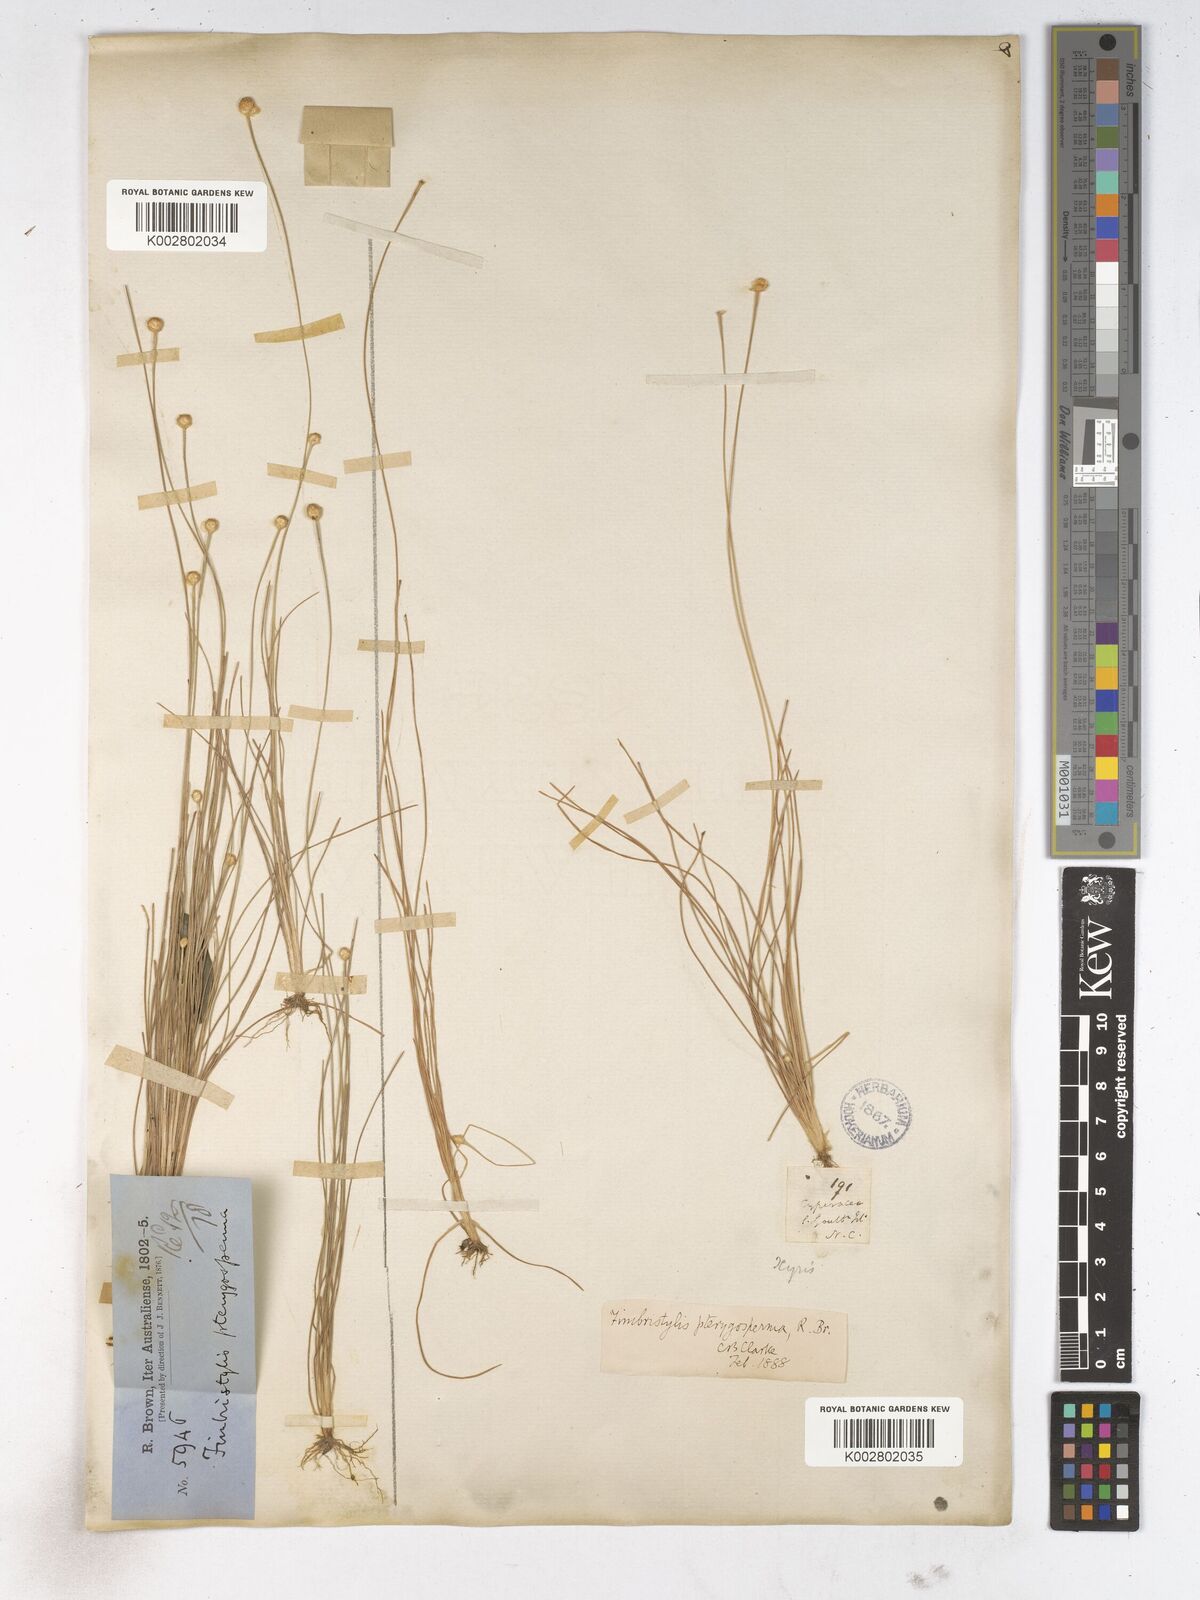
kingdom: Plantae
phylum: Tracheophyta
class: Liliopsida
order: Poales
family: Cyperaceae
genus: Fimbristylis
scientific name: Fimbristylis pterigosperma
